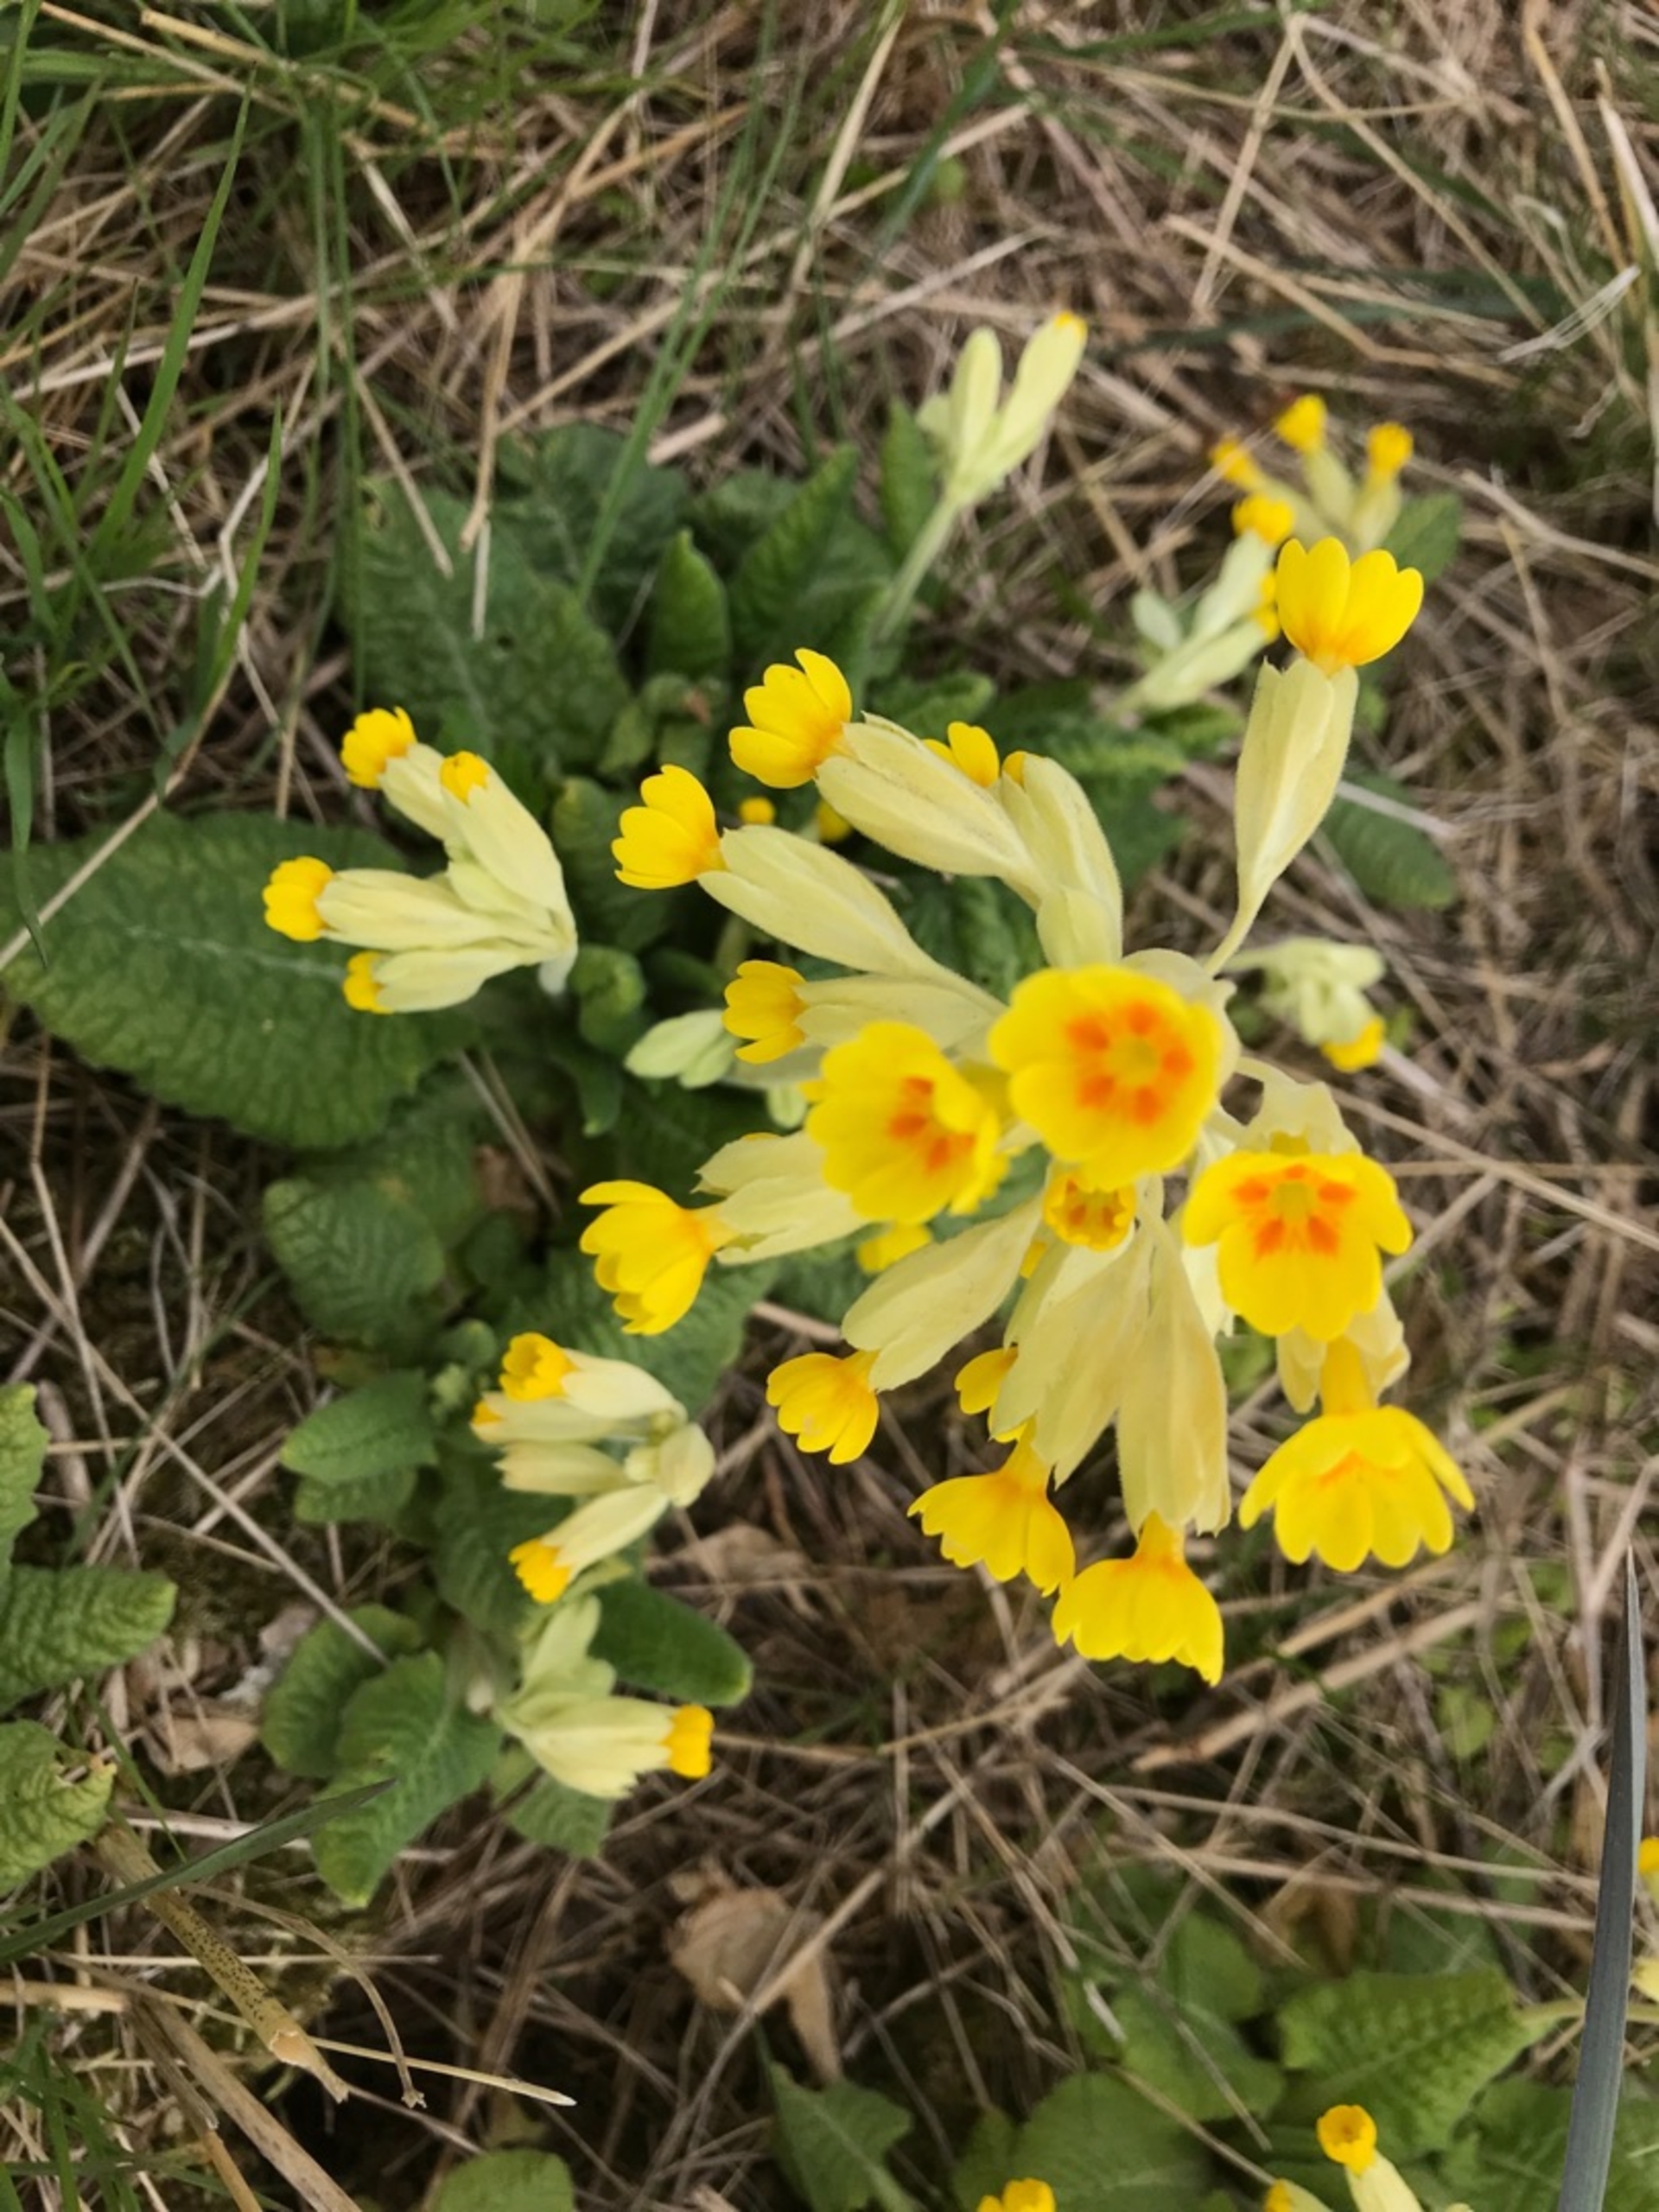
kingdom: Plantae
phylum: Tracheophyta
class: Magnoliopsida
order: Ericales
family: Primulaceae
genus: Primula
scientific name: Primula veris
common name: Hulkravet kodriver
